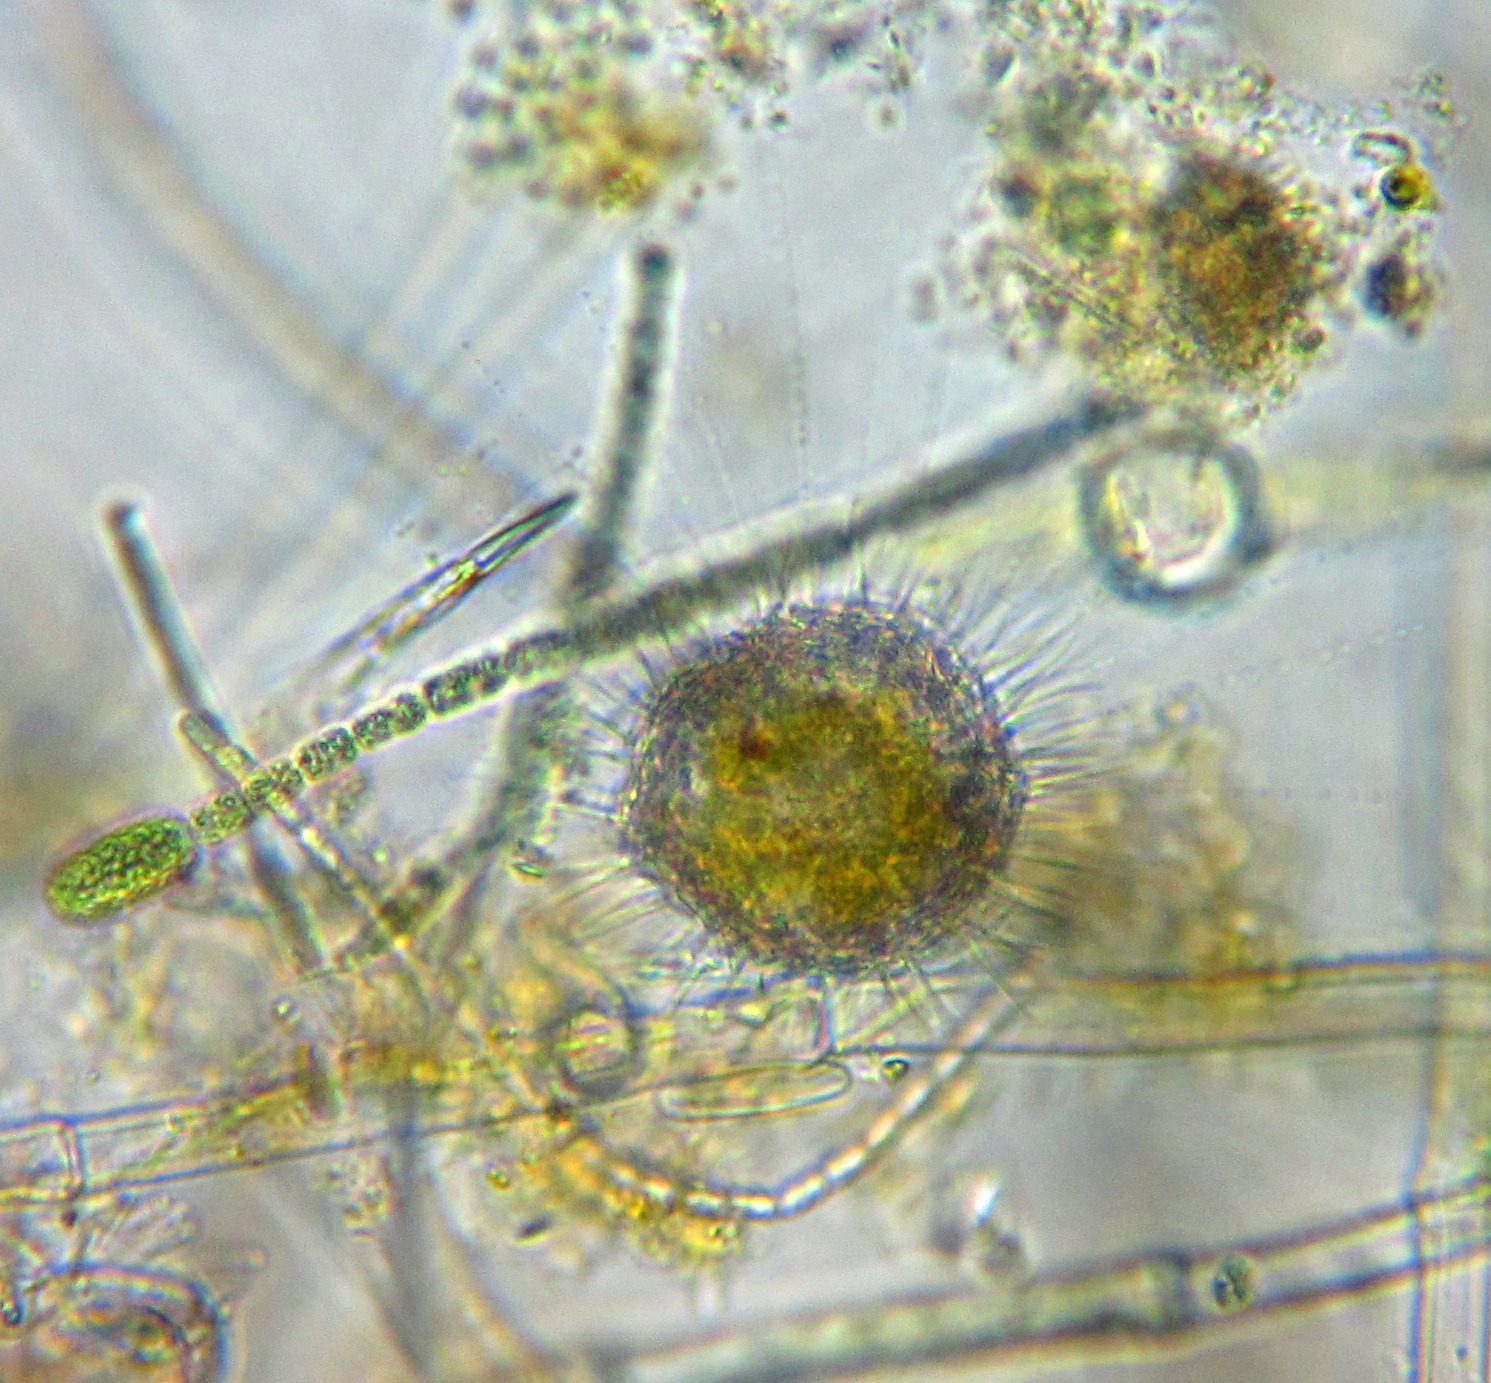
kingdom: Animalia
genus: Raphidiophrys
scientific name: Raphidiophrys
